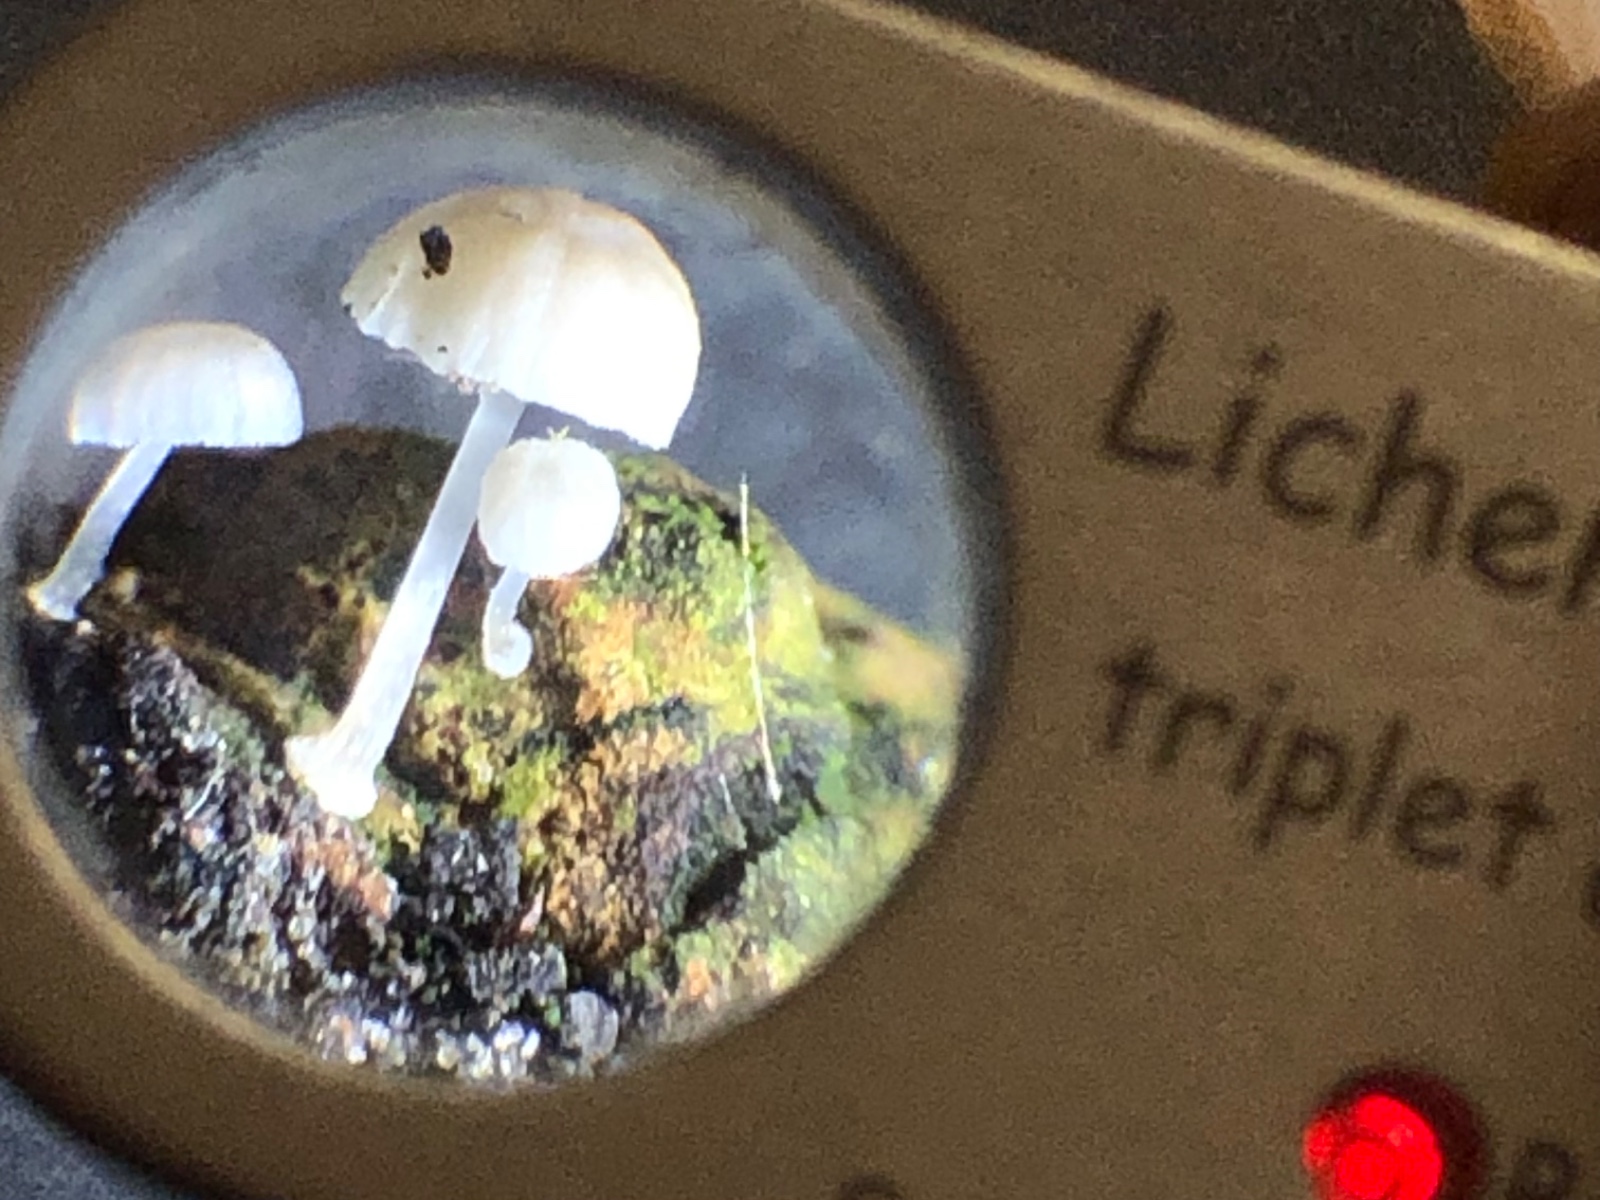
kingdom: Fungi
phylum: Basidiomycota
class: Agaricomycetes
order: Agaricales
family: Mycenaceae
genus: Mycena
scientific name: Mycena clavularis
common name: dunskivet huesvamp
